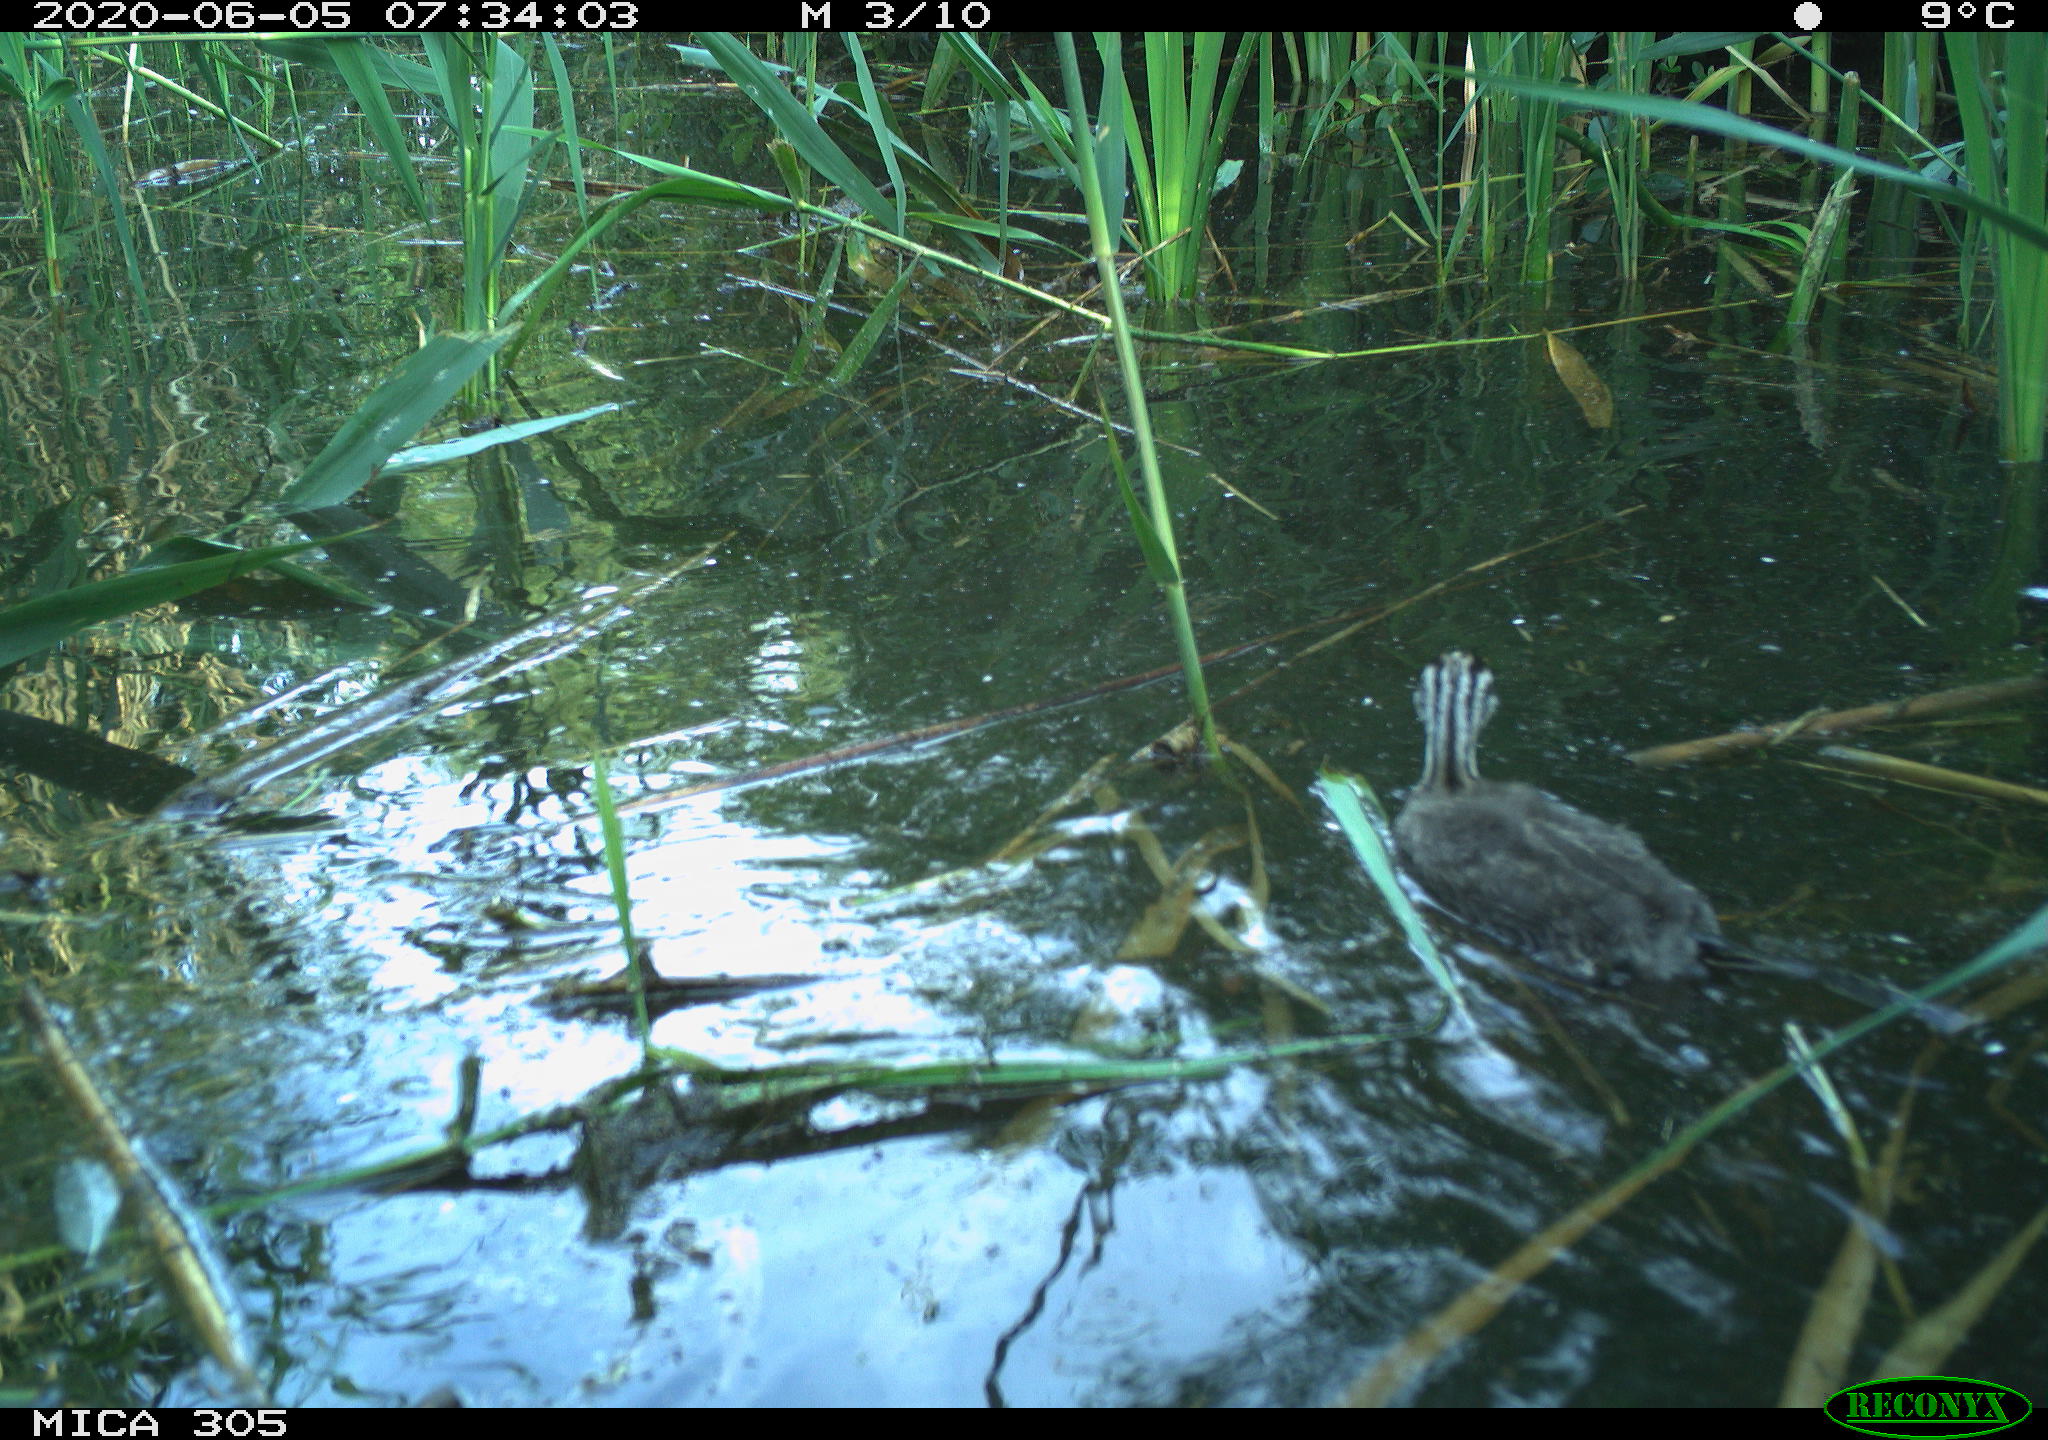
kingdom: Animalia
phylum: Chordata
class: Aves
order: Podicipediformes
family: Podicipedidae
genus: Podiceps
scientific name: Podiceps cristatus
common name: Great crested grebe
